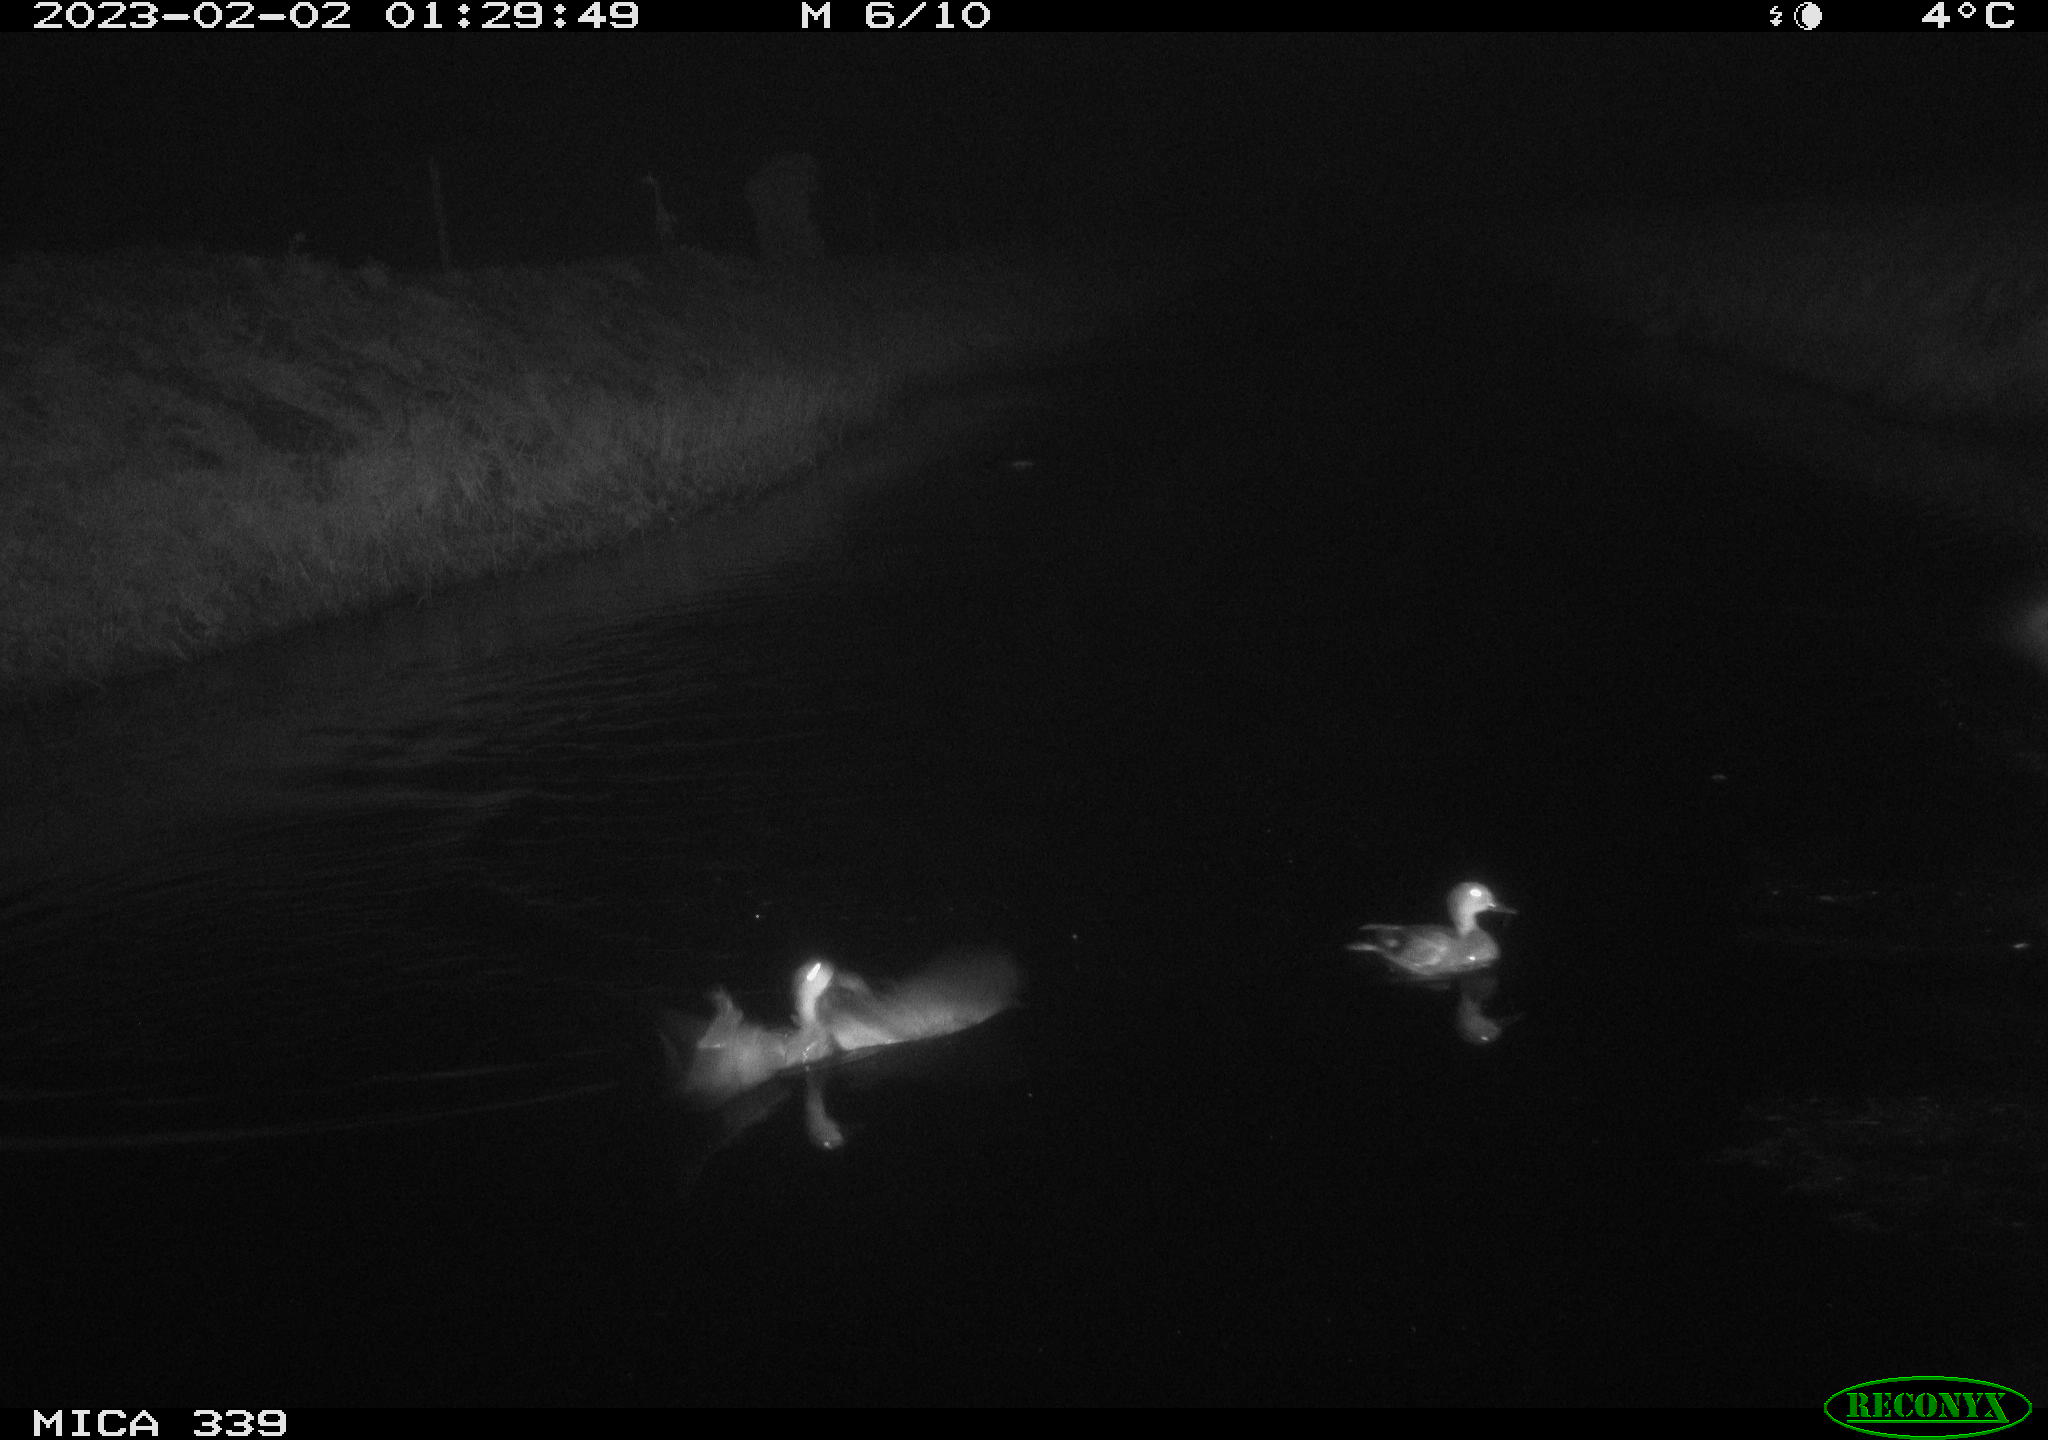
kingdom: Animalia
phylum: Chordata
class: Aves
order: Anseriformes
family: Anatidae
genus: Anas
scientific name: Anas
